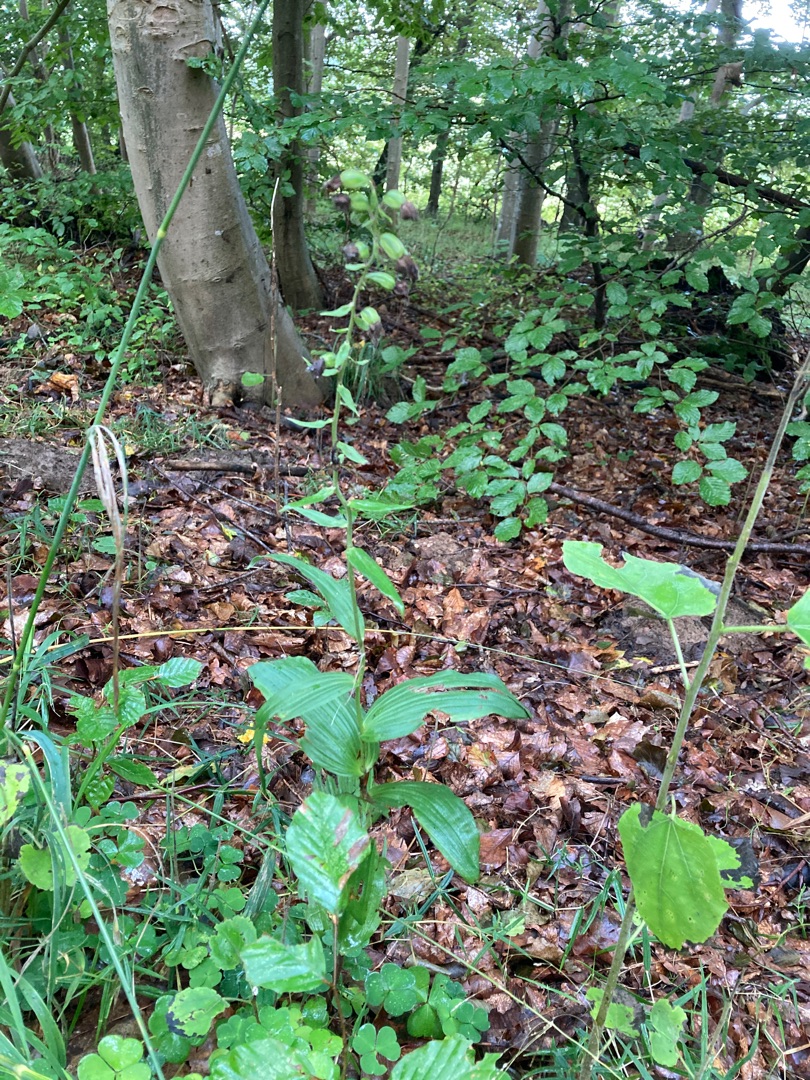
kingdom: Plantae
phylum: Tracheophyta
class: Liliopsida
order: Asparagales
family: Orchidaceae
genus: Epipactis
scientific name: Epipactis helleborine
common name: Skov-hullæbe
